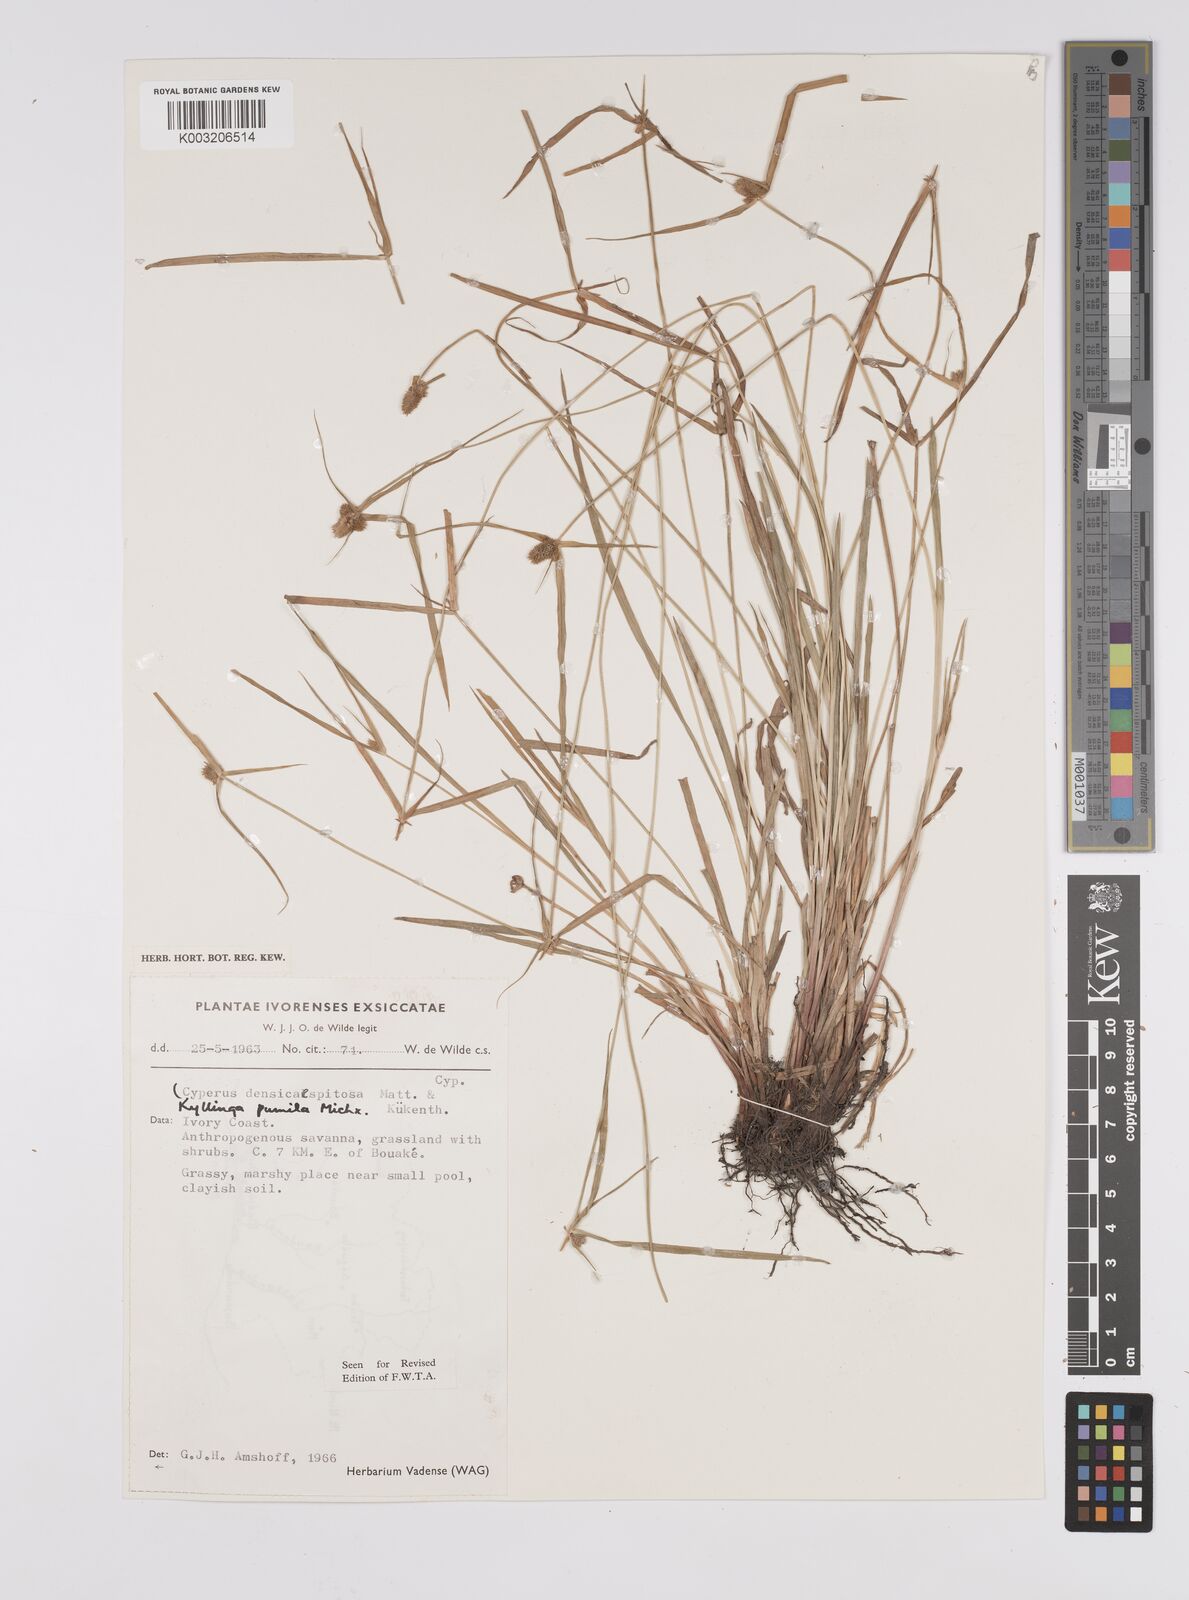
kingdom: Plantae
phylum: Tracheophyta
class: Liliopsida
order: Poales
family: Cyperaceae
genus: Cyperus
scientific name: Cyperus
